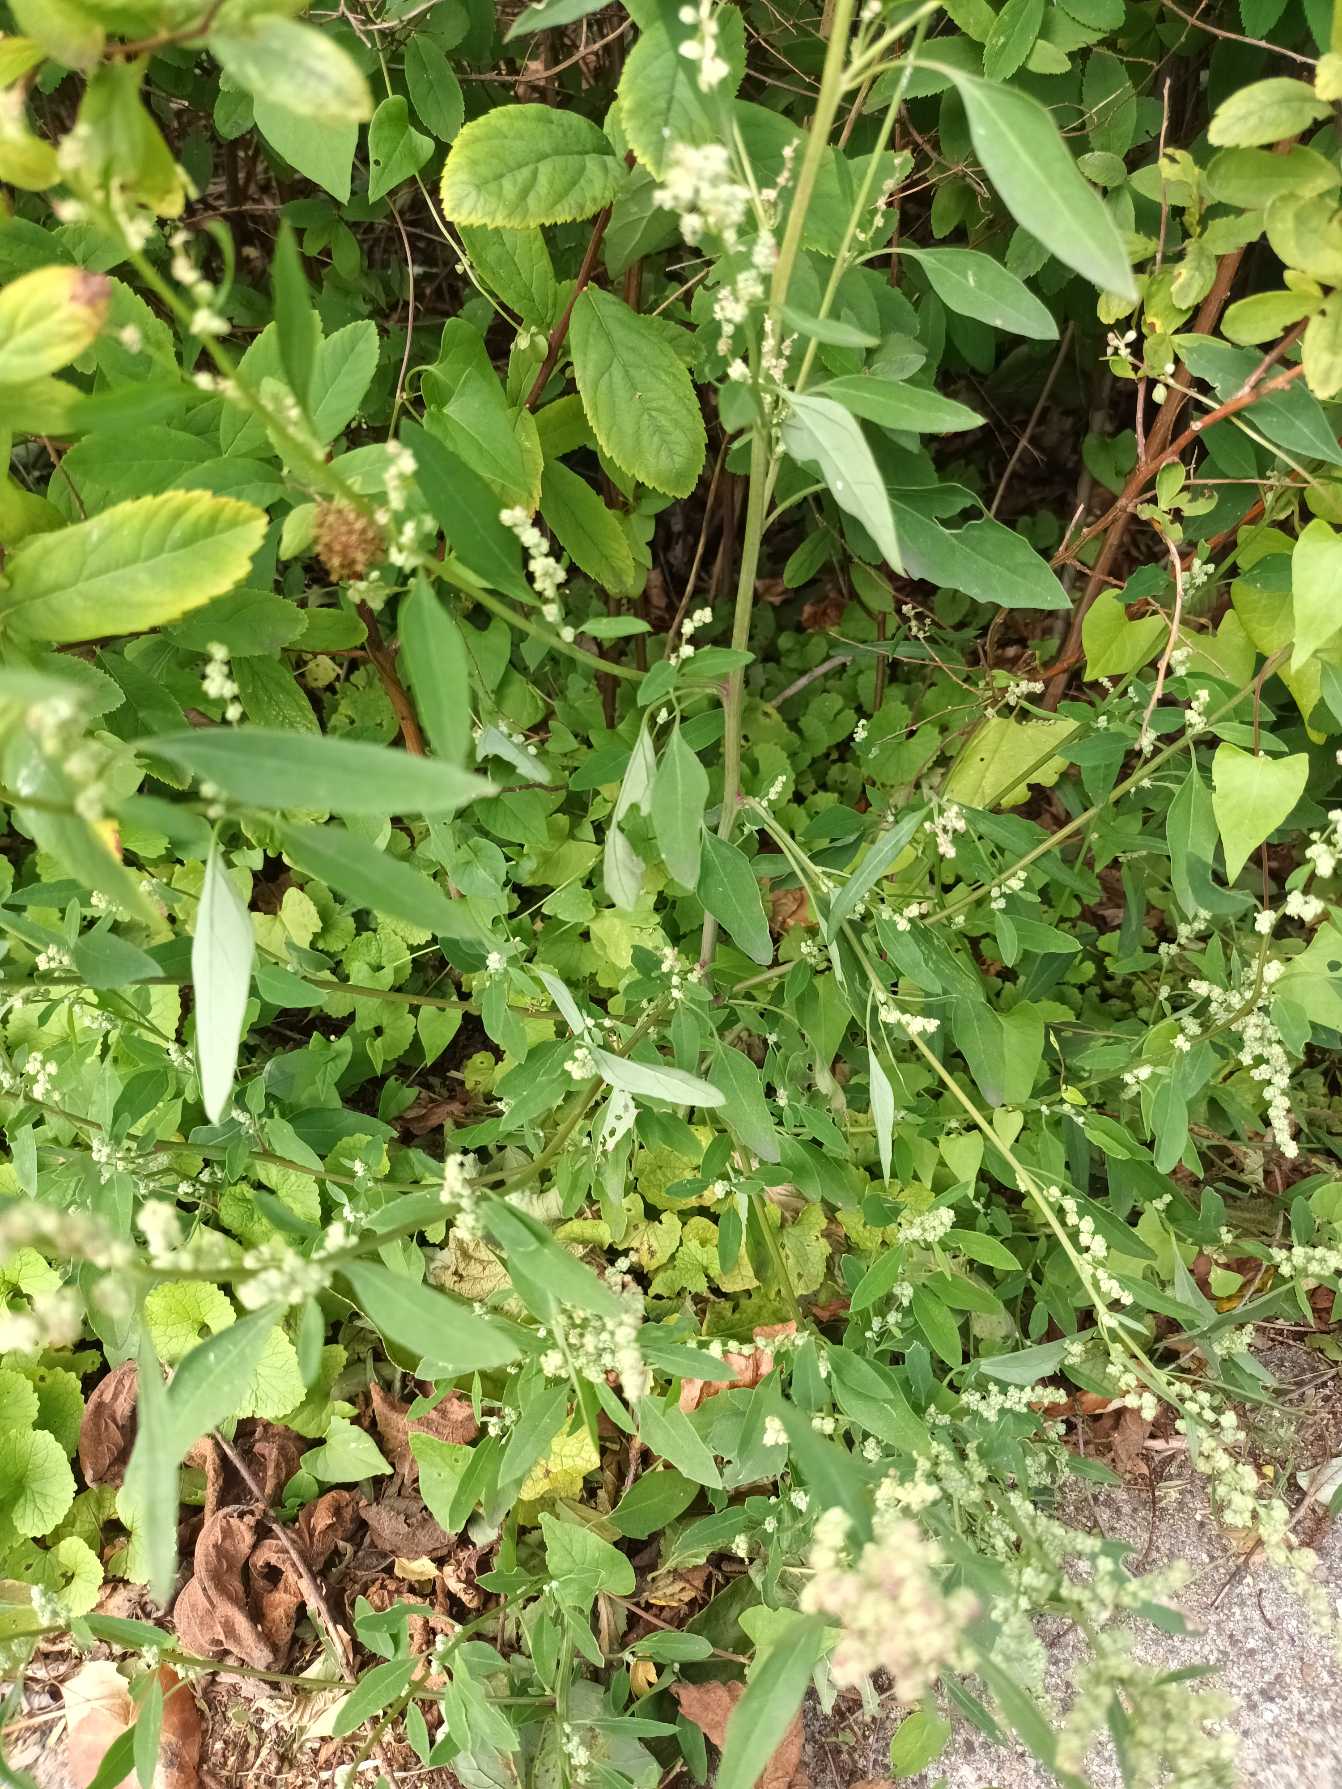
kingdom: Plantae
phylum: Tracheophyta
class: Magnoliopsida
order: Caryophyllales
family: Amaranthaceae
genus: Chenopodium
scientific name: Chenopodium pratericola
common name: Finbladet gåsefod
